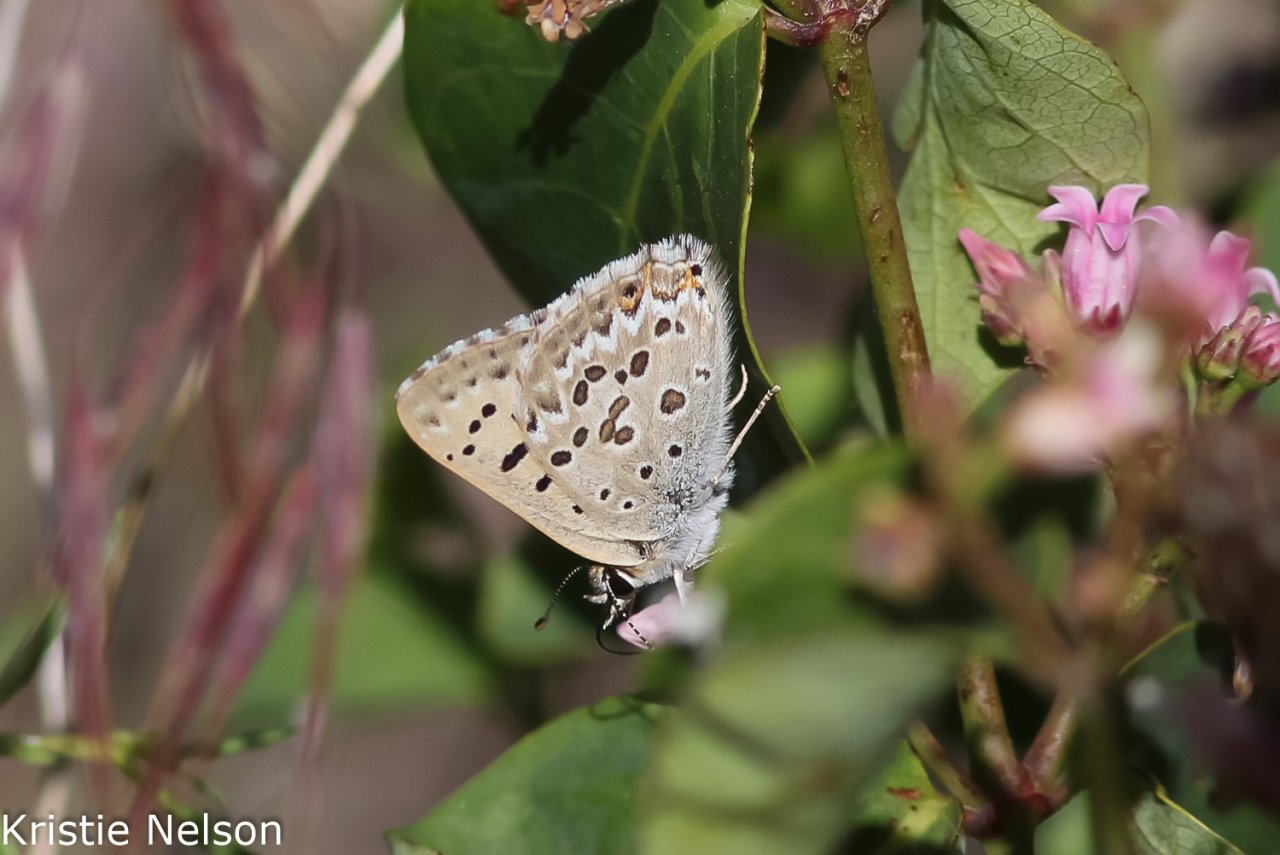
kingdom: Animalia
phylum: Arthropoda
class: Insecta
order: Lepidoptera
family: Lycaenidae
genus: Lycaena
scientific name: Lycaena editha
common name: Edith's Copper
